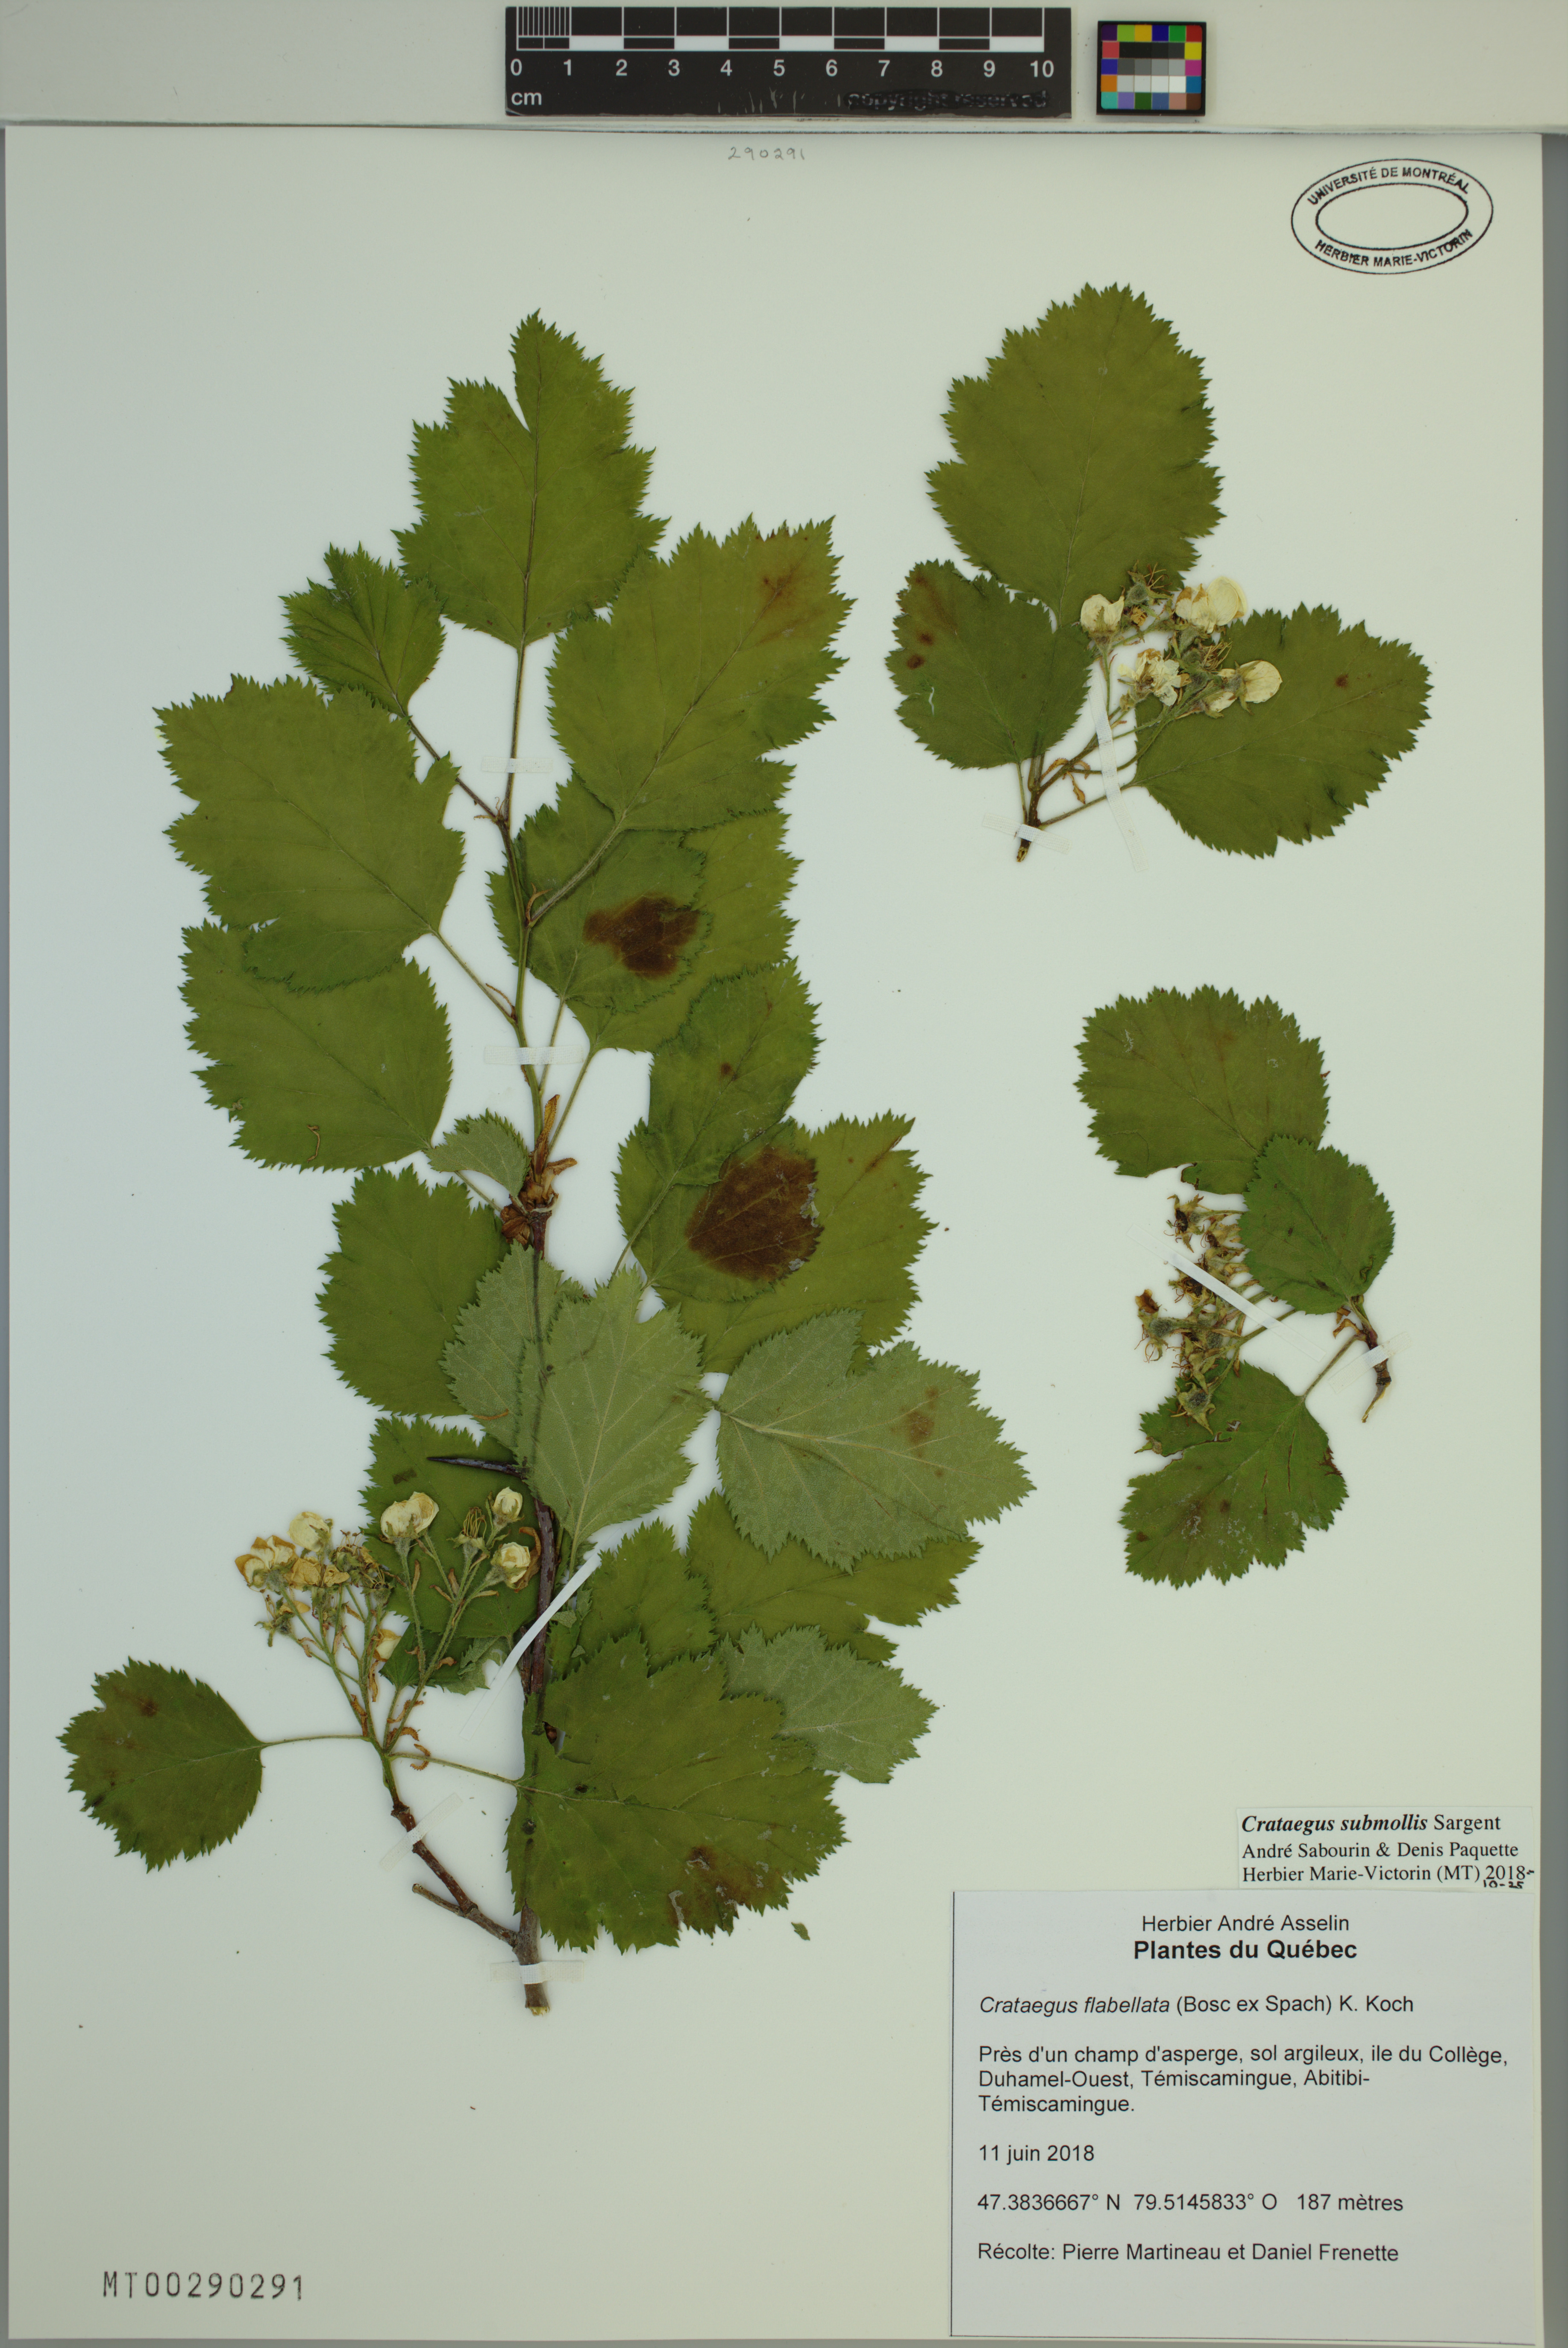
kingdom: Plantae
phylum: Tracheophyta
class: Magnoliopsida
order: Rosales
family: Rosaceae
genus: Crataegus
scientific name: Crataegus submollis
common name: Hairy cockspurthorn
